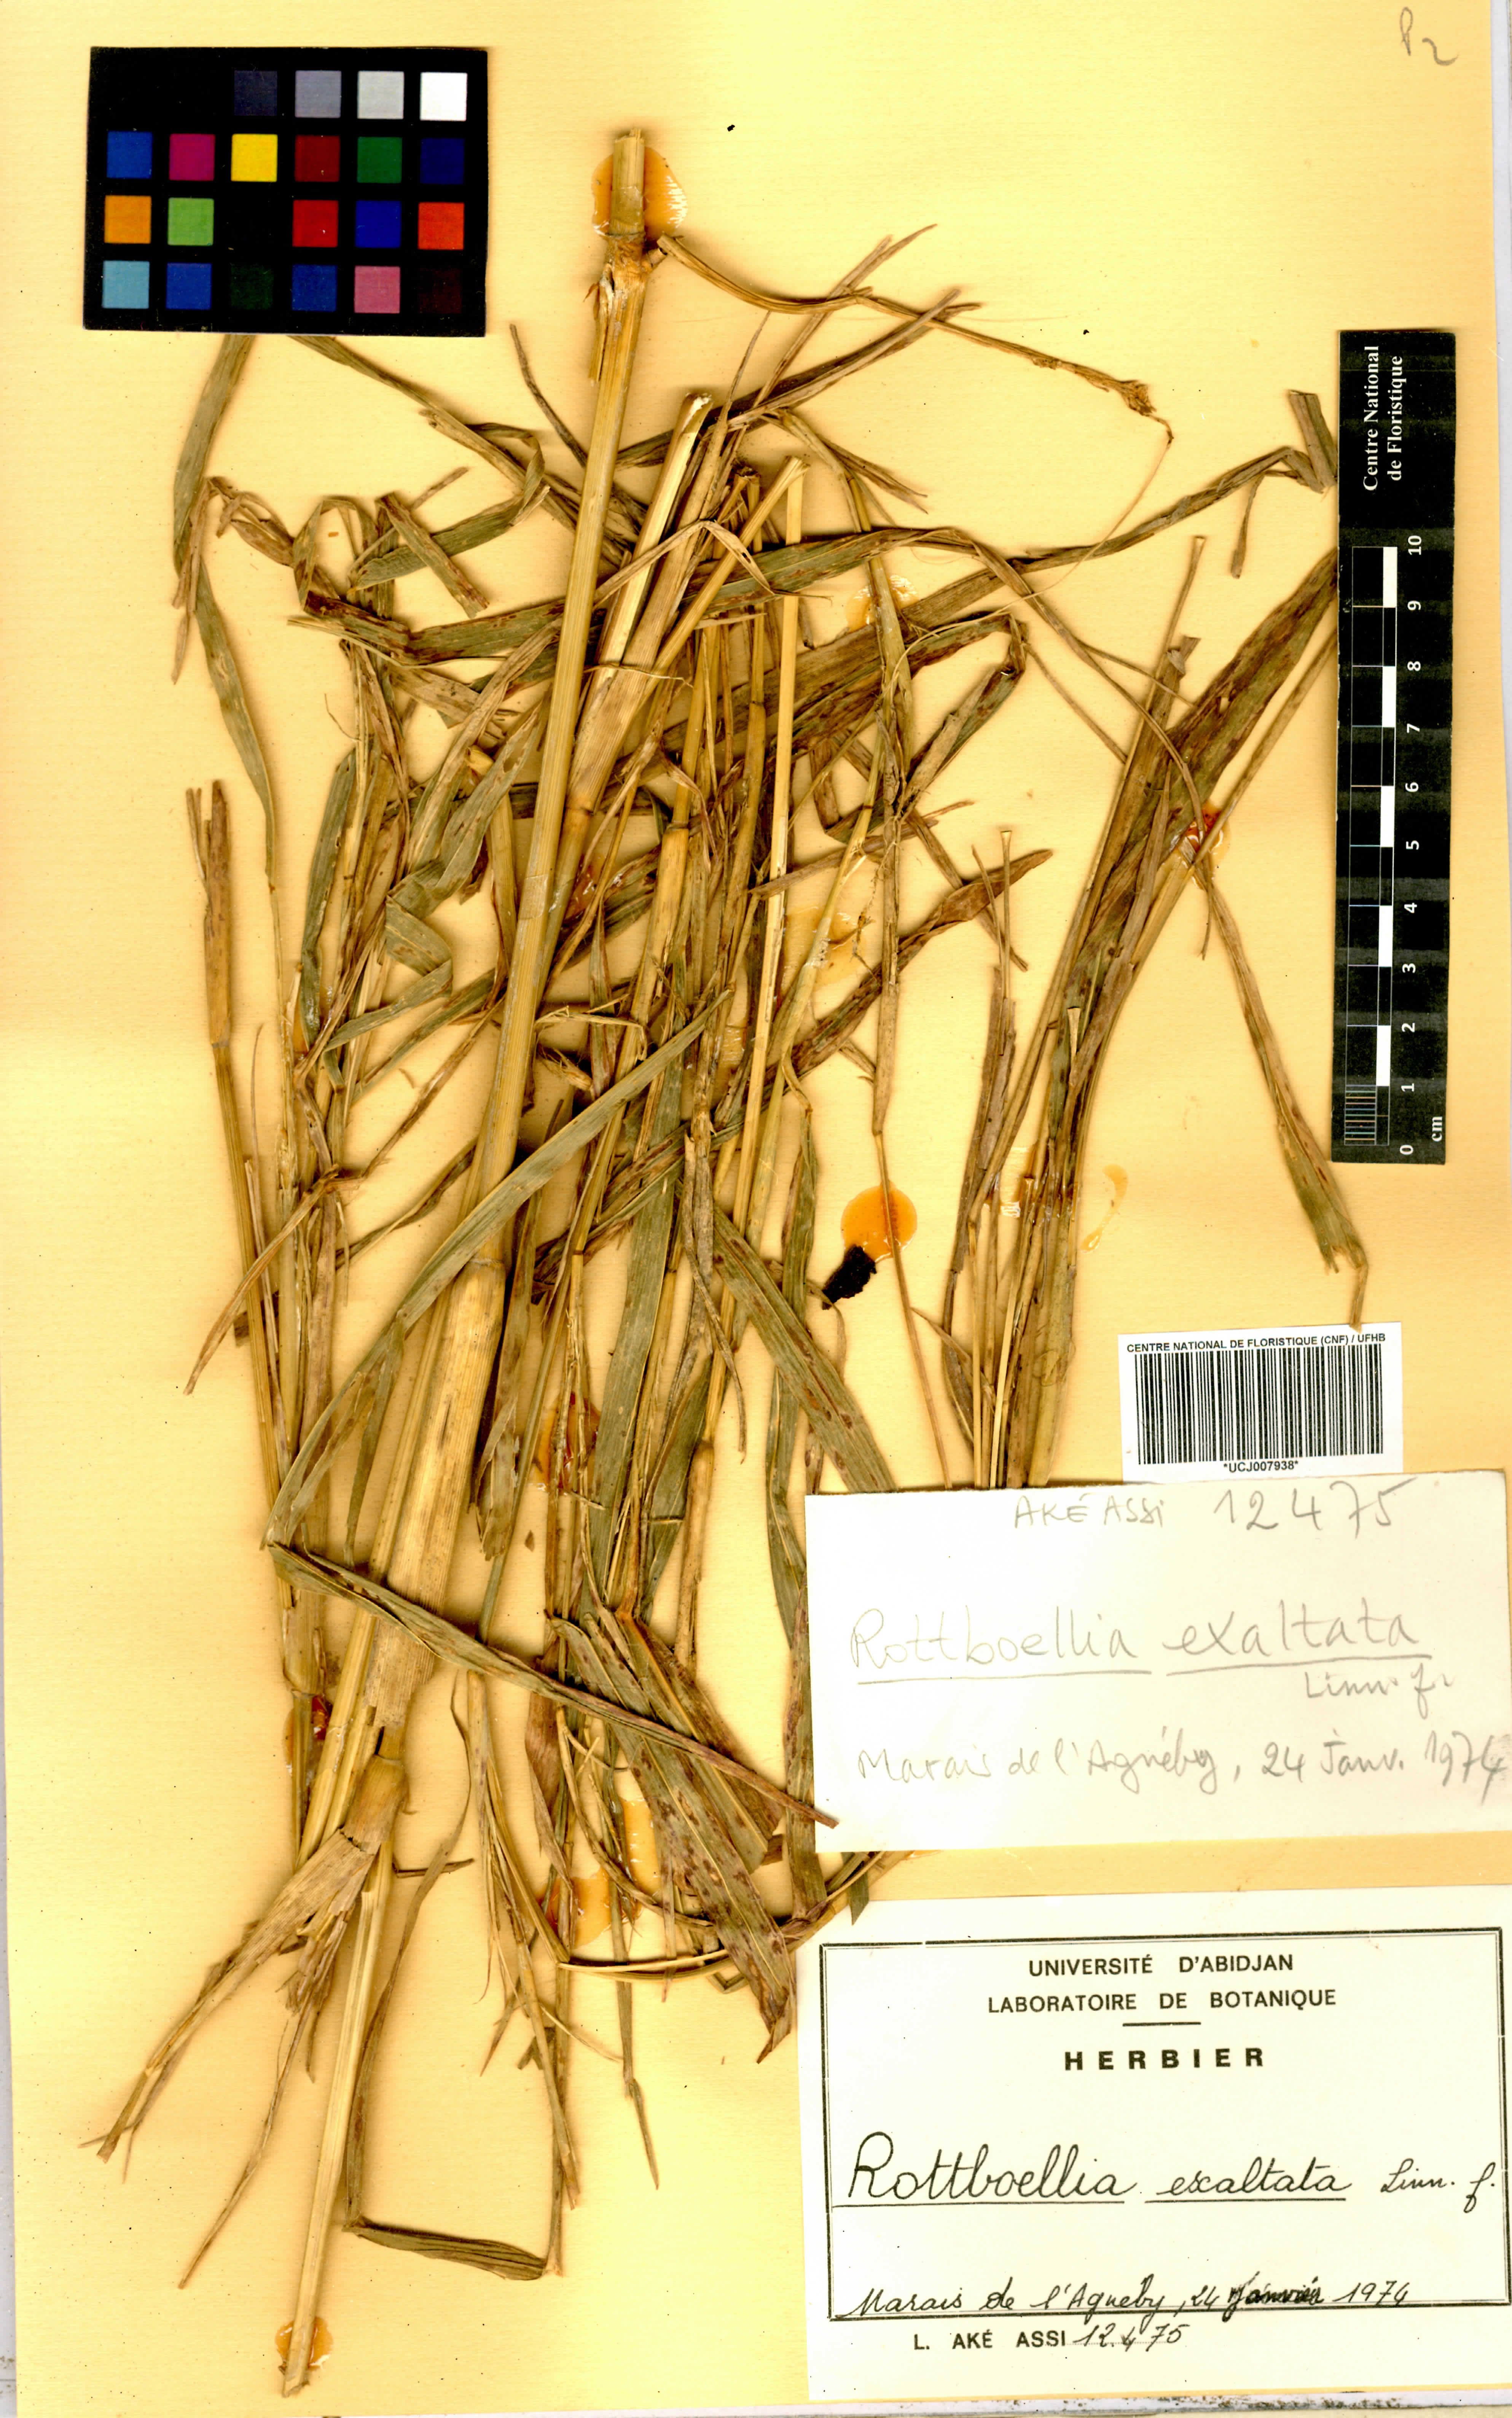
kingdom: Plantae
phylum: Tracheophyta
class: Liliopsida
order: Poales
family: Poaceae
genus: Rottboellia
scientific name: Rottboellia
